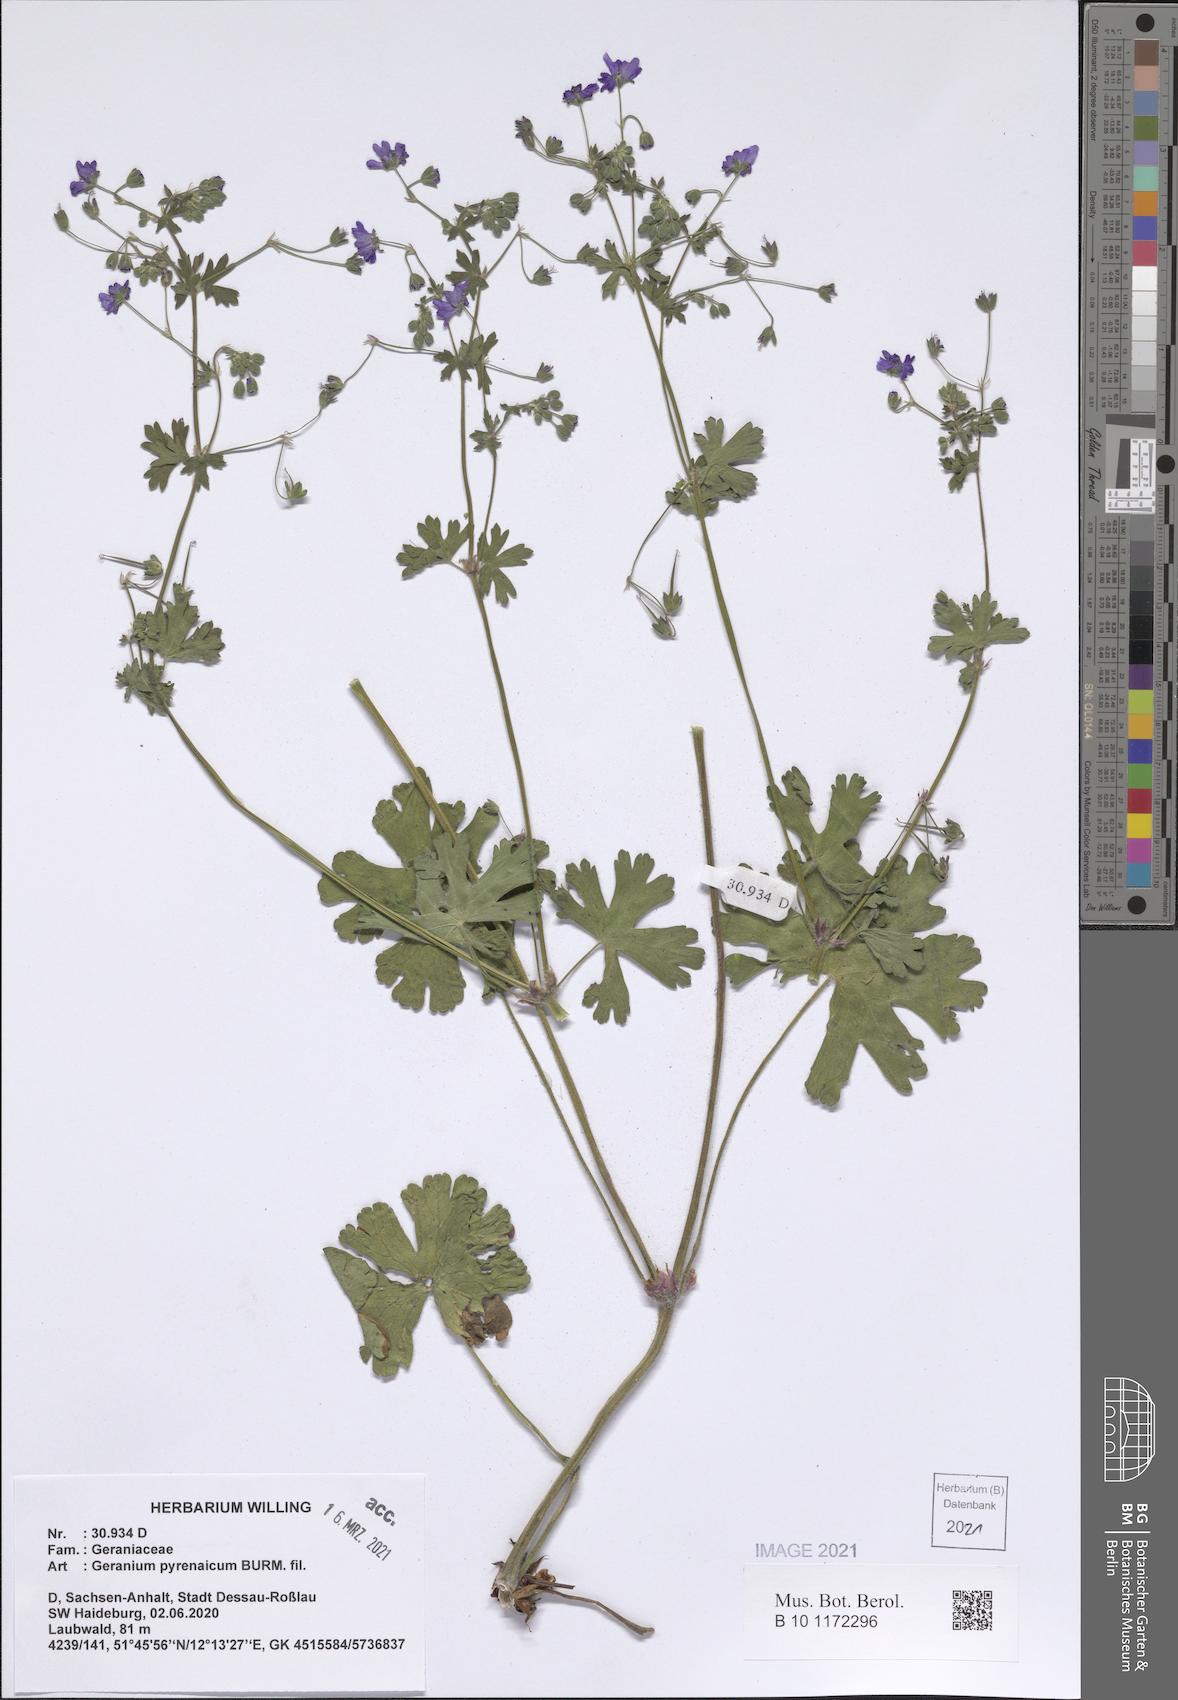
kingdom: Plantae
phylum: Tracheophyta
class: Magnoliopsida
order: Geraniales
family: Geraniaceae
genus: Geranium
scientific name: Geranium pyrenaicum
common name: Hedgerow crane's-bill
